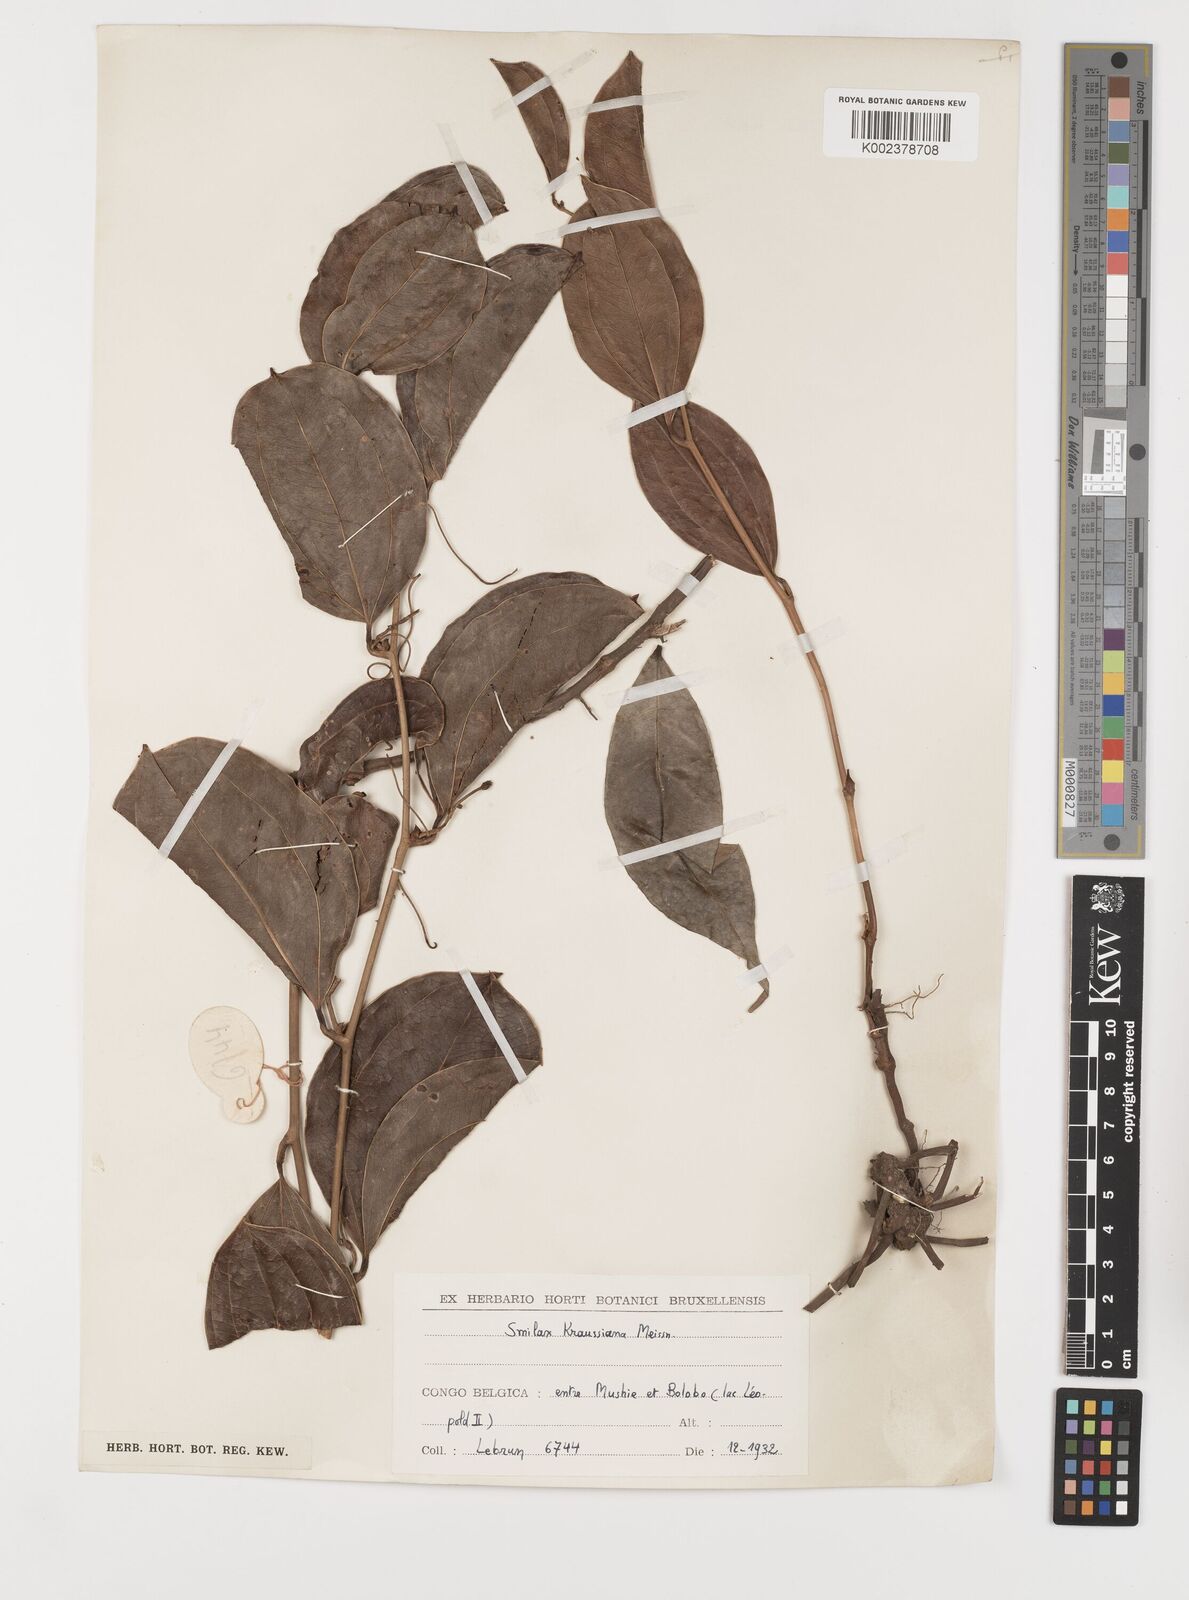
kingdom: Plantae
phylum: Tracheophyta
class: Liliopsida
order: Liliales
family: Smilacaceae
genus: Smilax
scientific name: Smilax anceps
